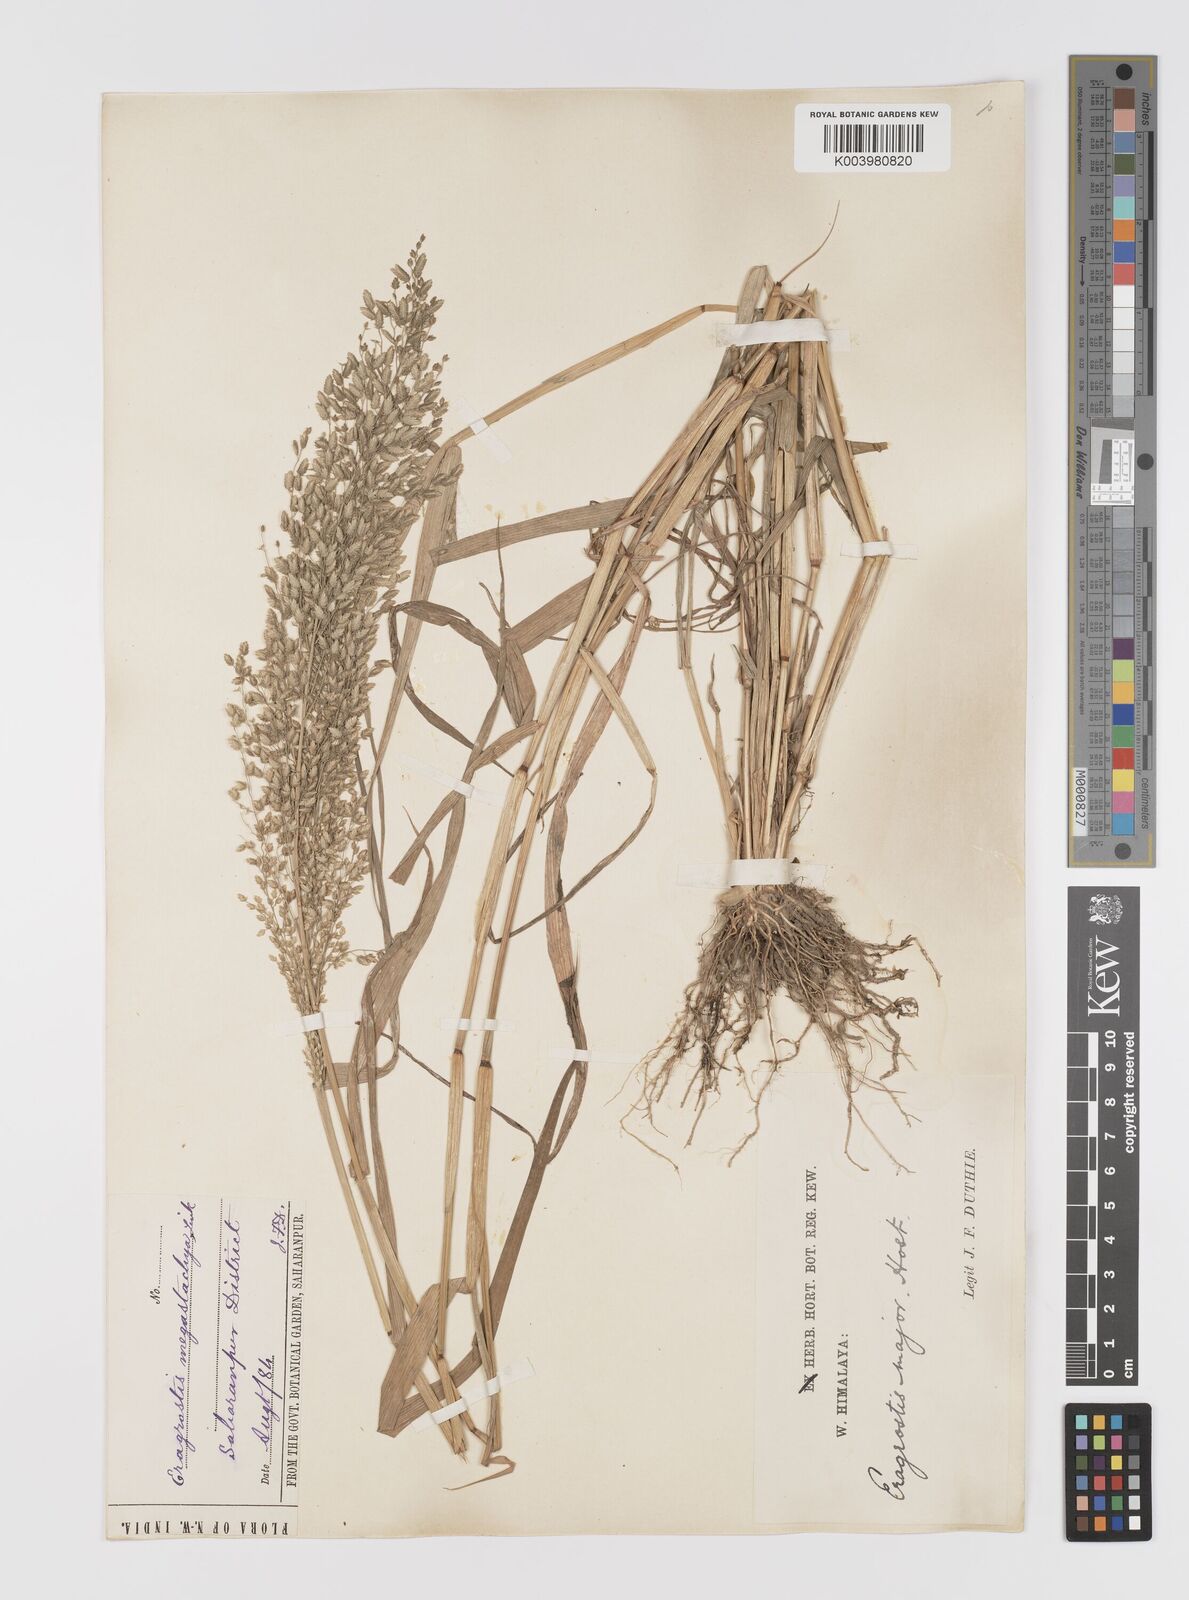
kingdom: Plantae
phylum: Tracheophyta
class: Liliopsida
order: Poales
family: Poaceae
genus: Eragrostis
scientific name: Eragrostis cilianensis
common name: Stinkgrass
